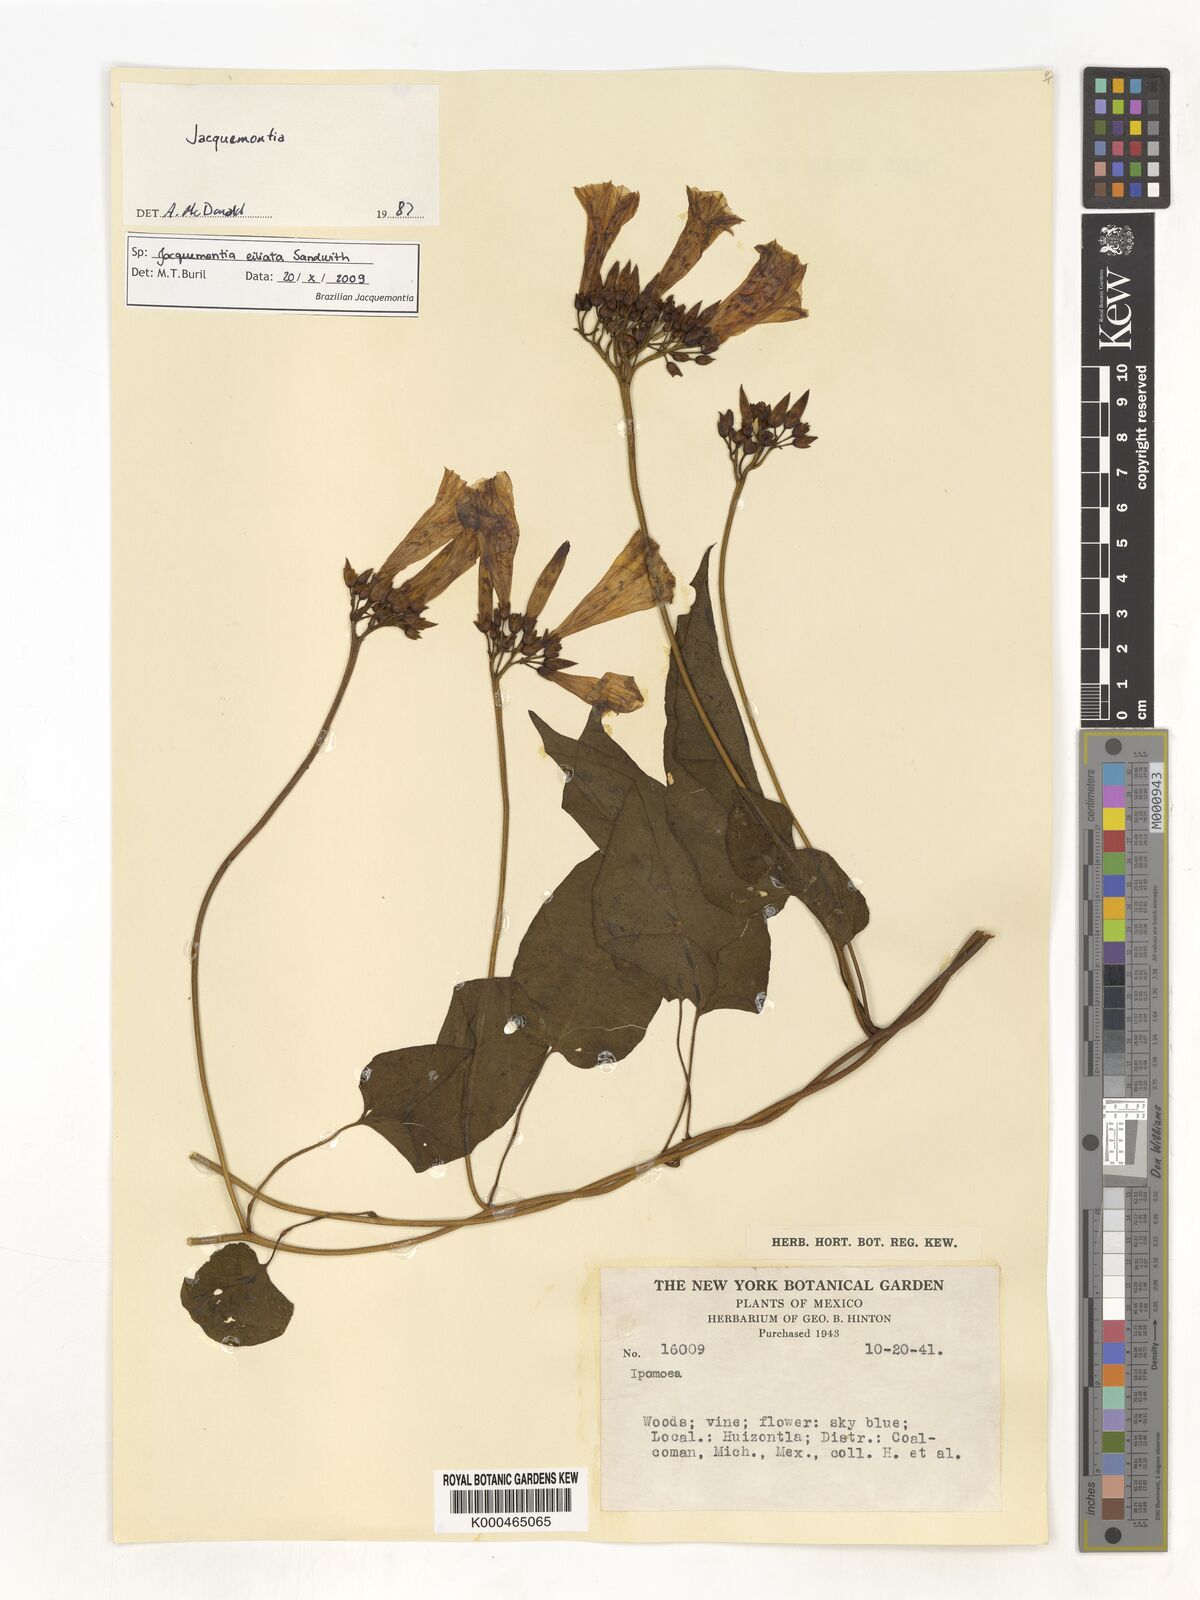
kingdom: Plantae
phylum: Tracheophyta
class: Magnoliopsida
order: Solanales
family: Convolvulaceae
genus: Jacquemontia
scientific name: Jacquemontia
